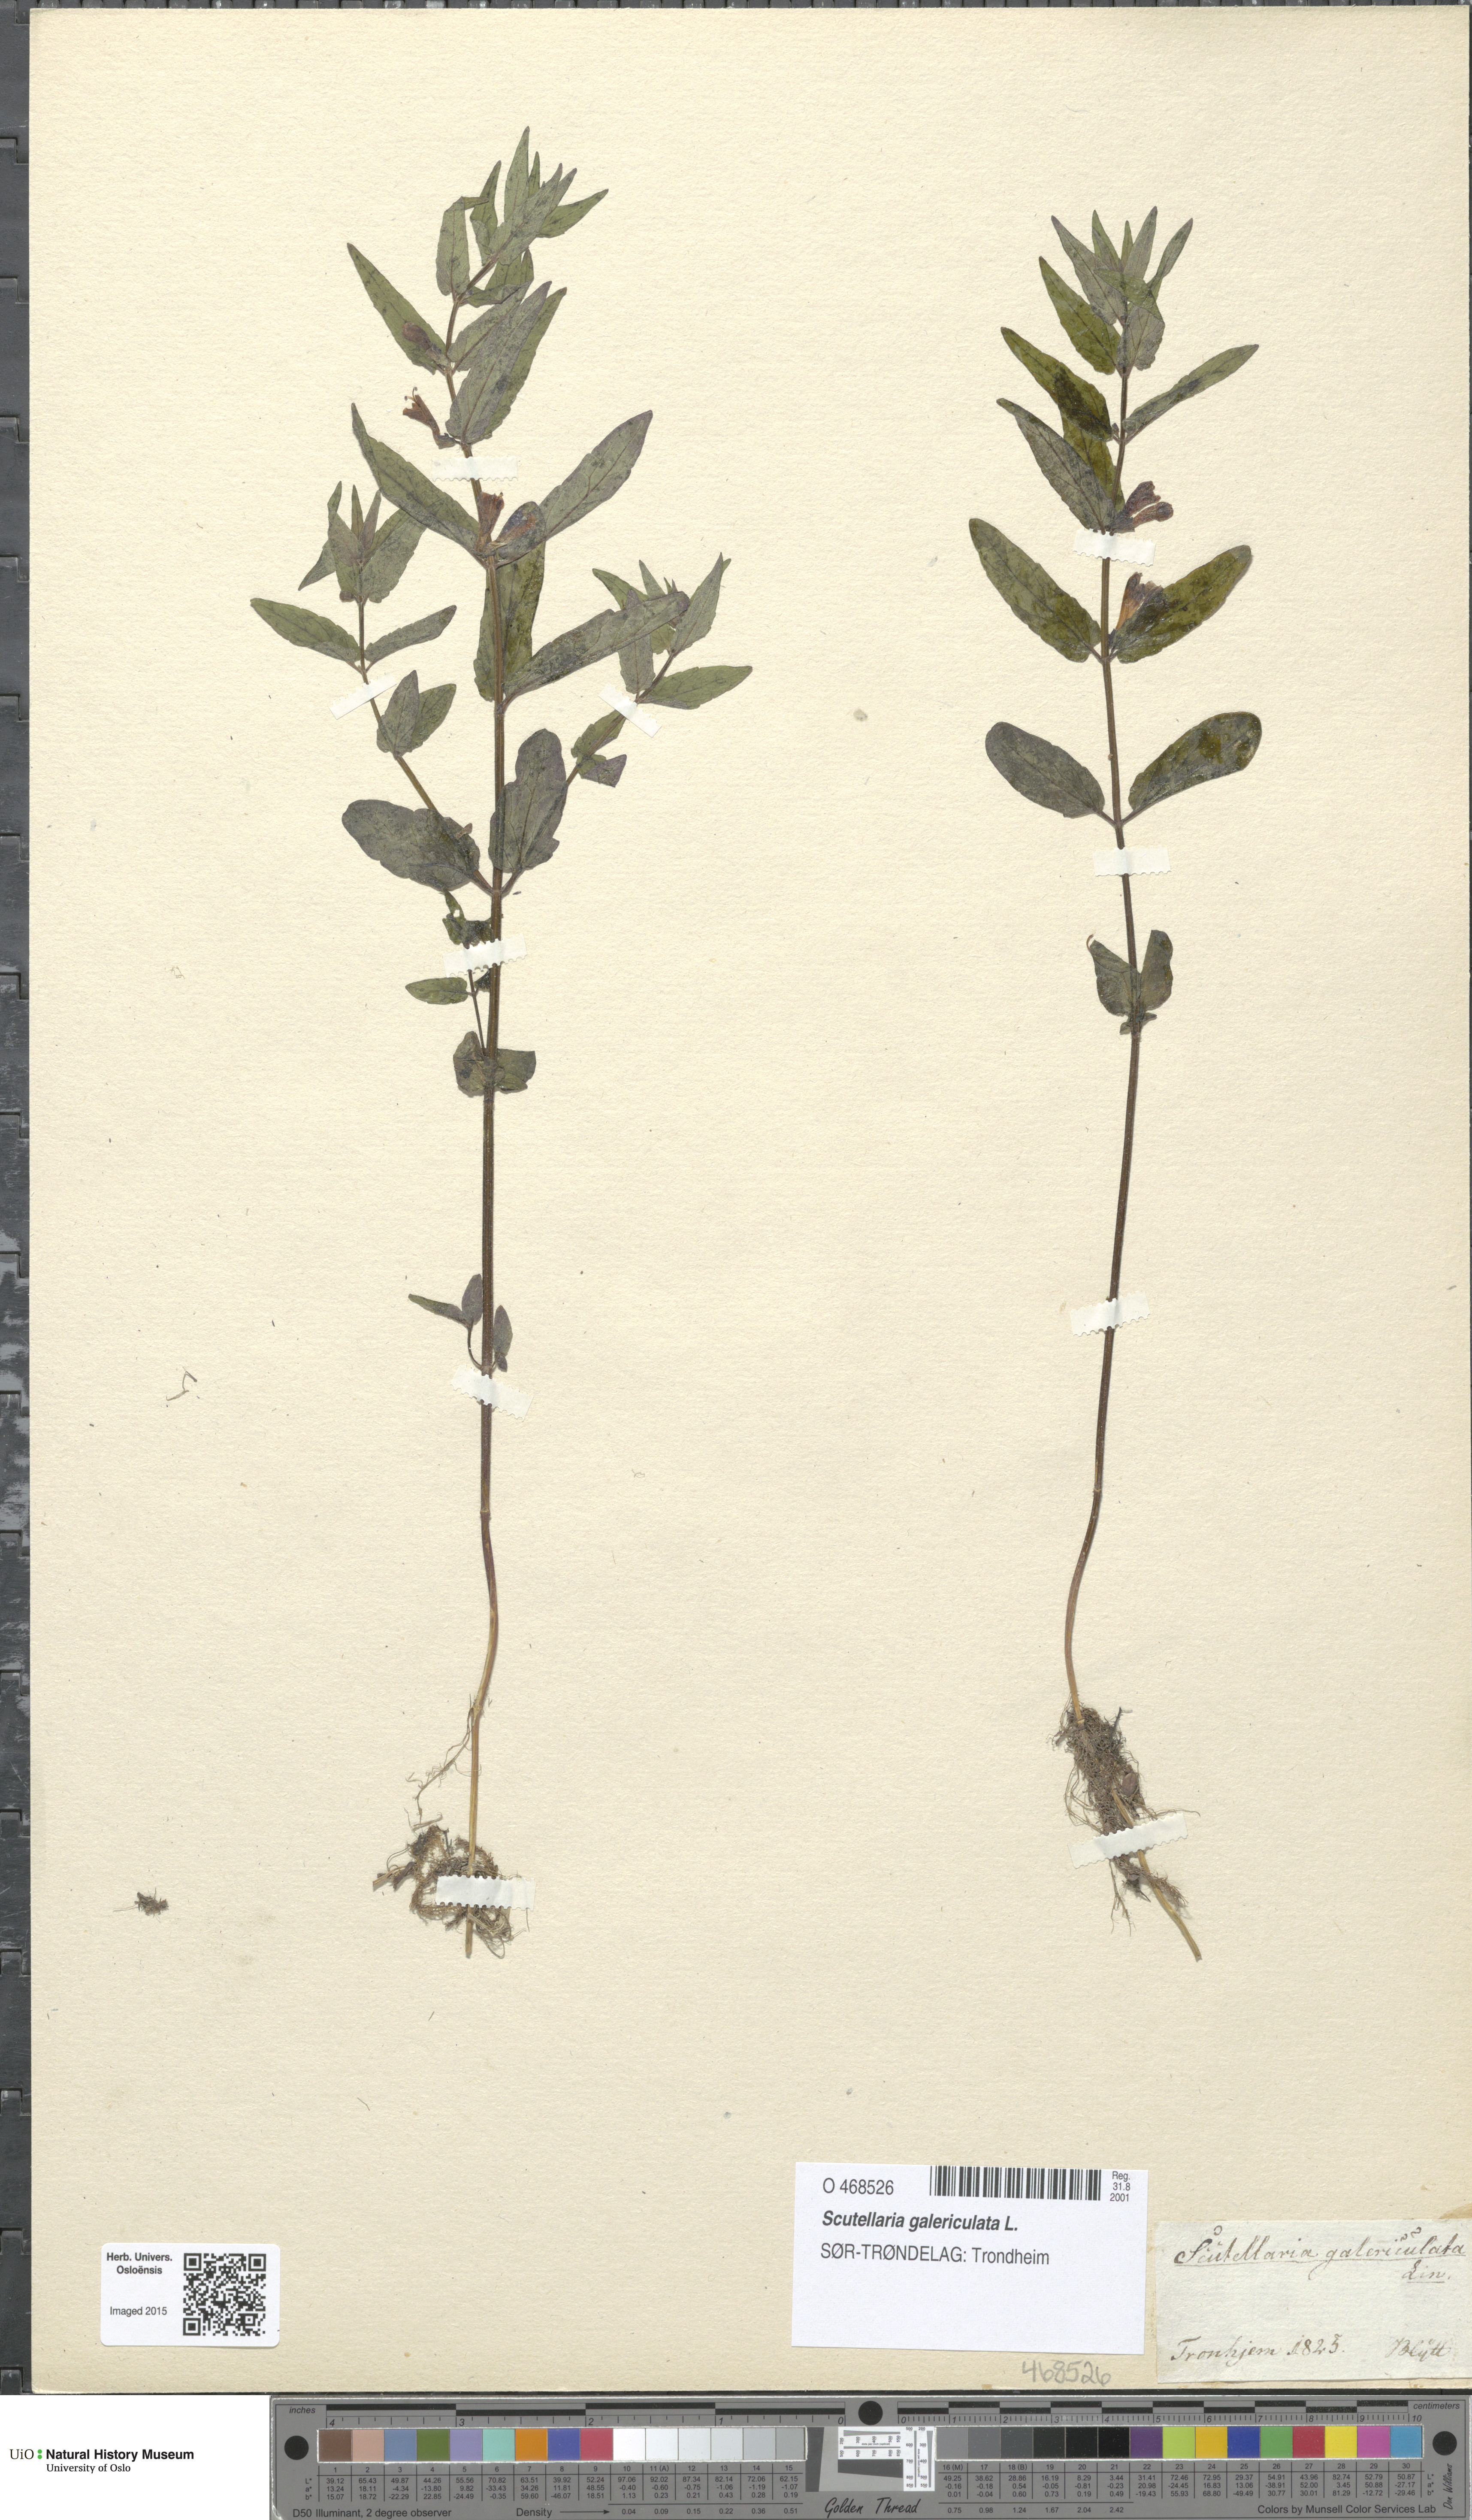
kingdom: Plantae
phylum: Tracheophyta
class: Magnoliopsida
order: Lamiales
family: Lamiaceae
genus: Scutellaria
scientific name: Scutellaria galericulata
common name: Skullcap
